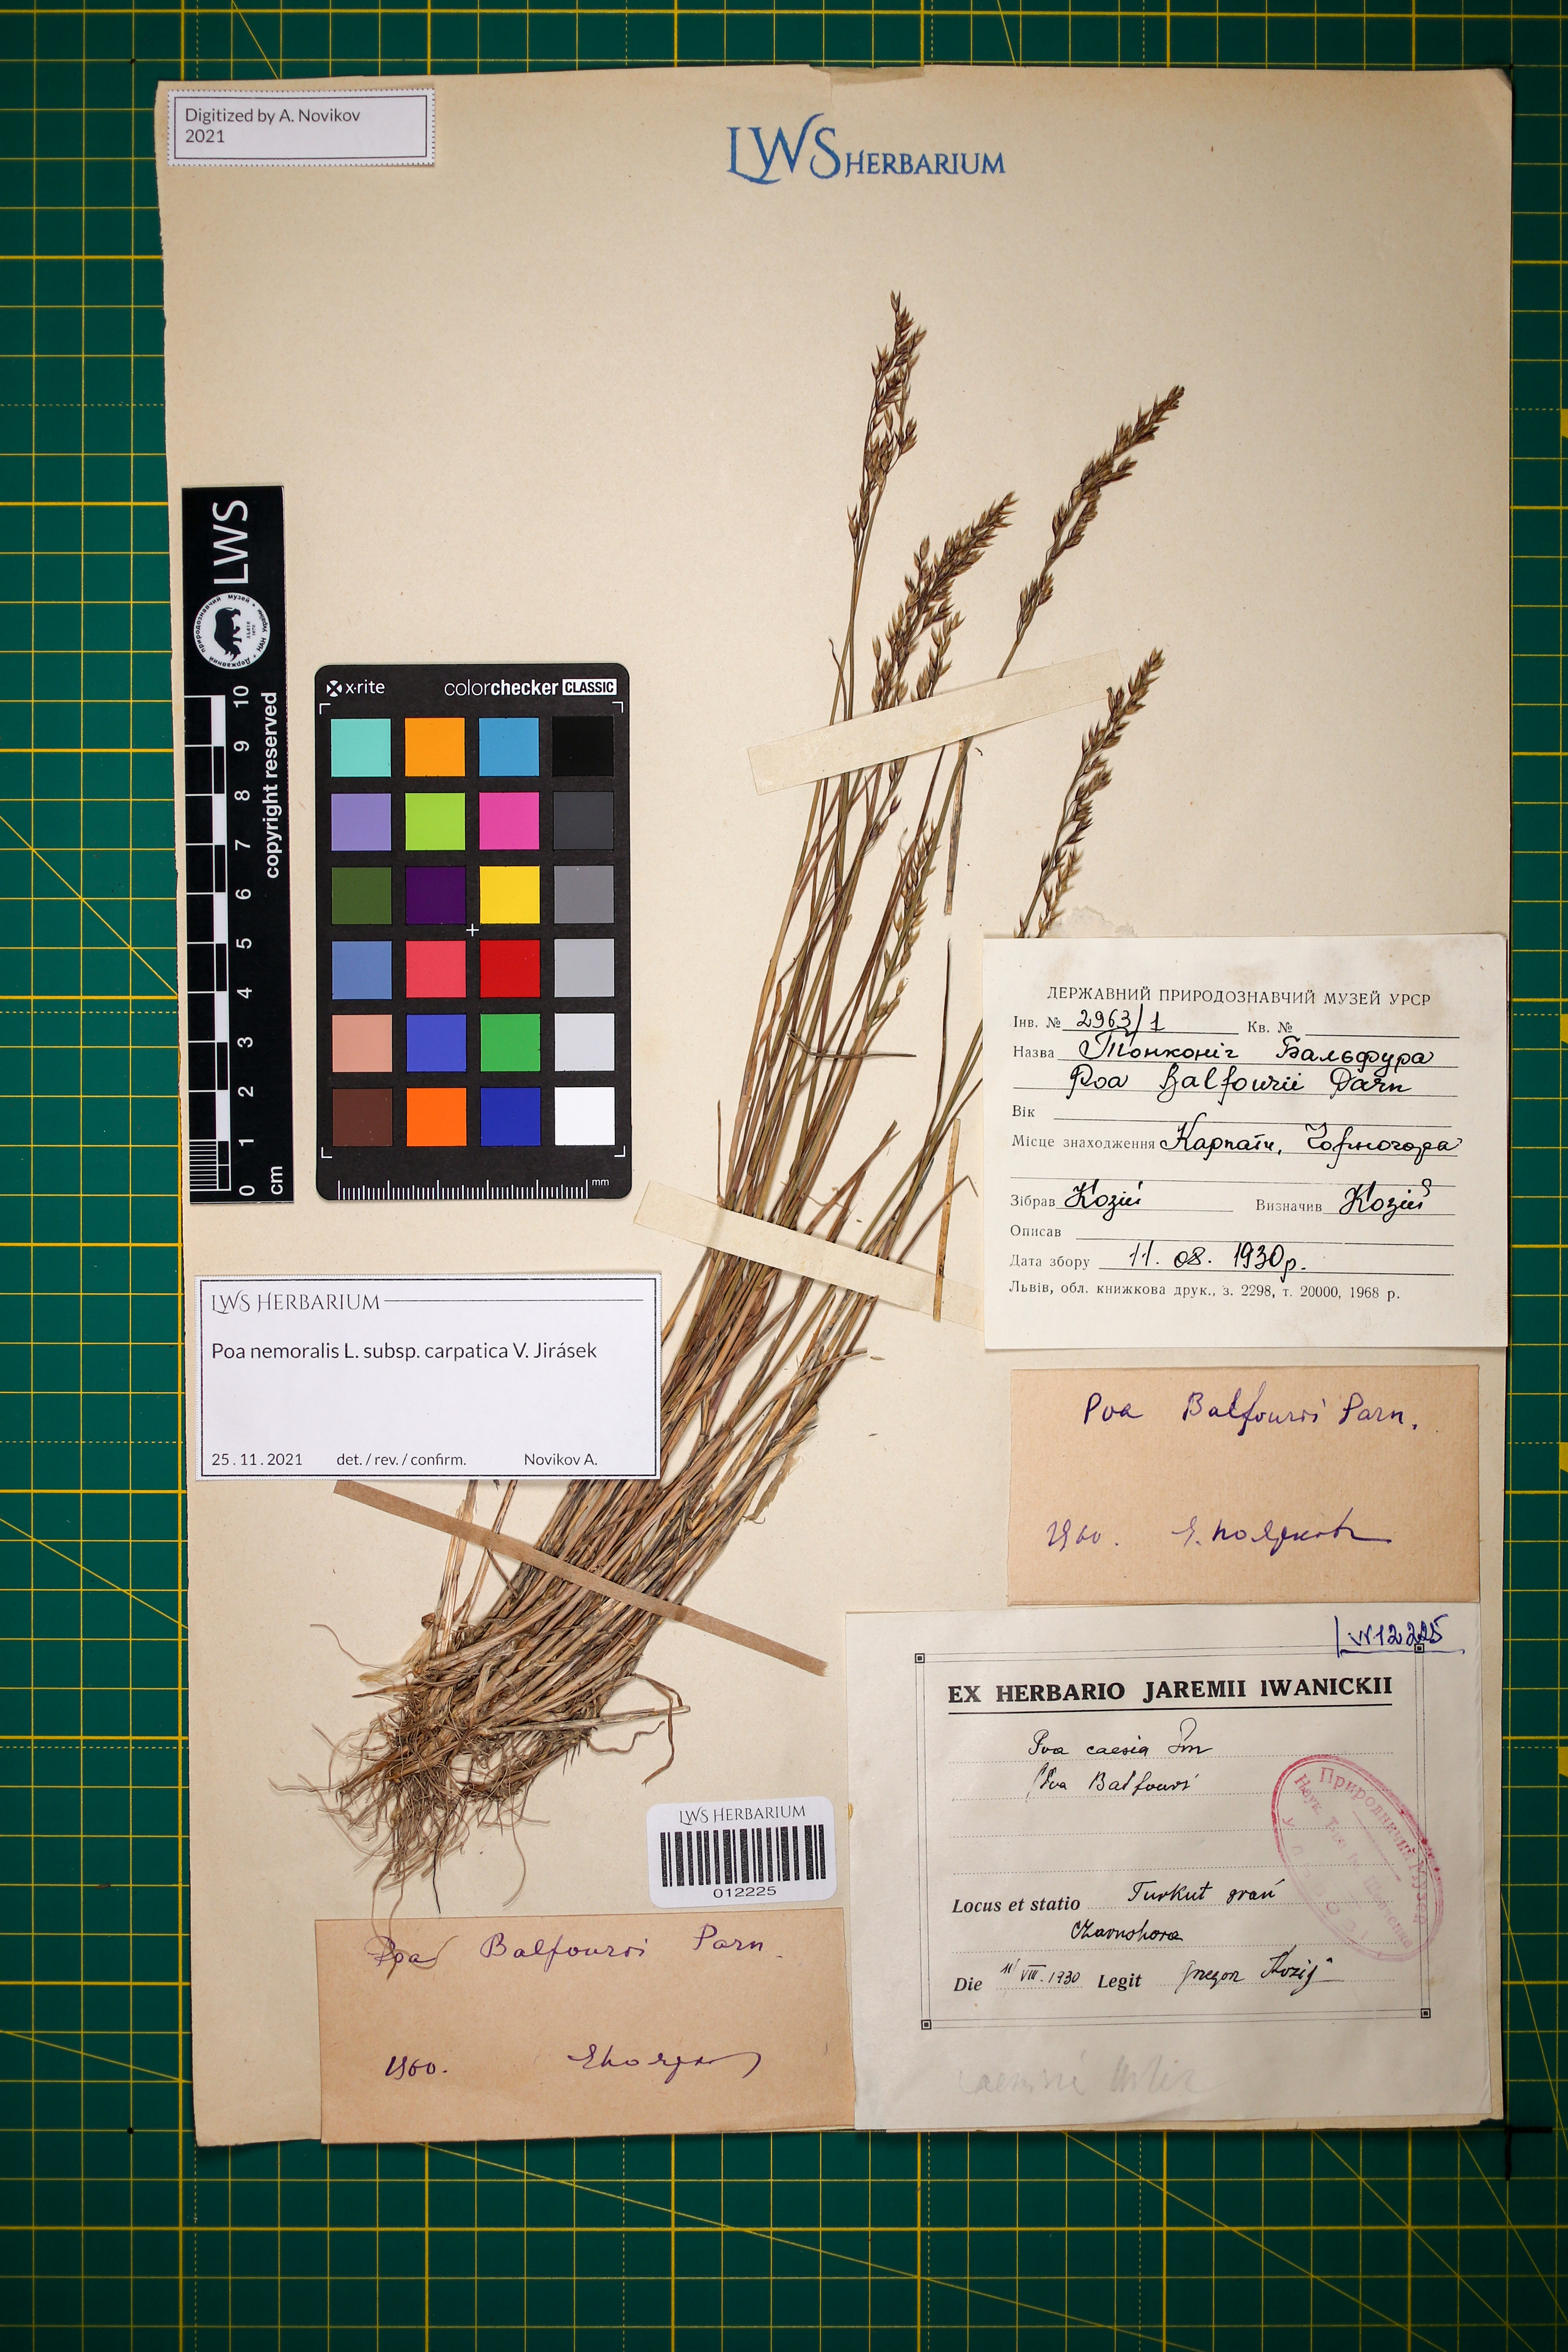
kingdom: Plantae
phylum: Tracheophyta
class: Liliopsida
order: Poales
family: Poaceae
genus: Poa
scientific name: Poa carpatica
